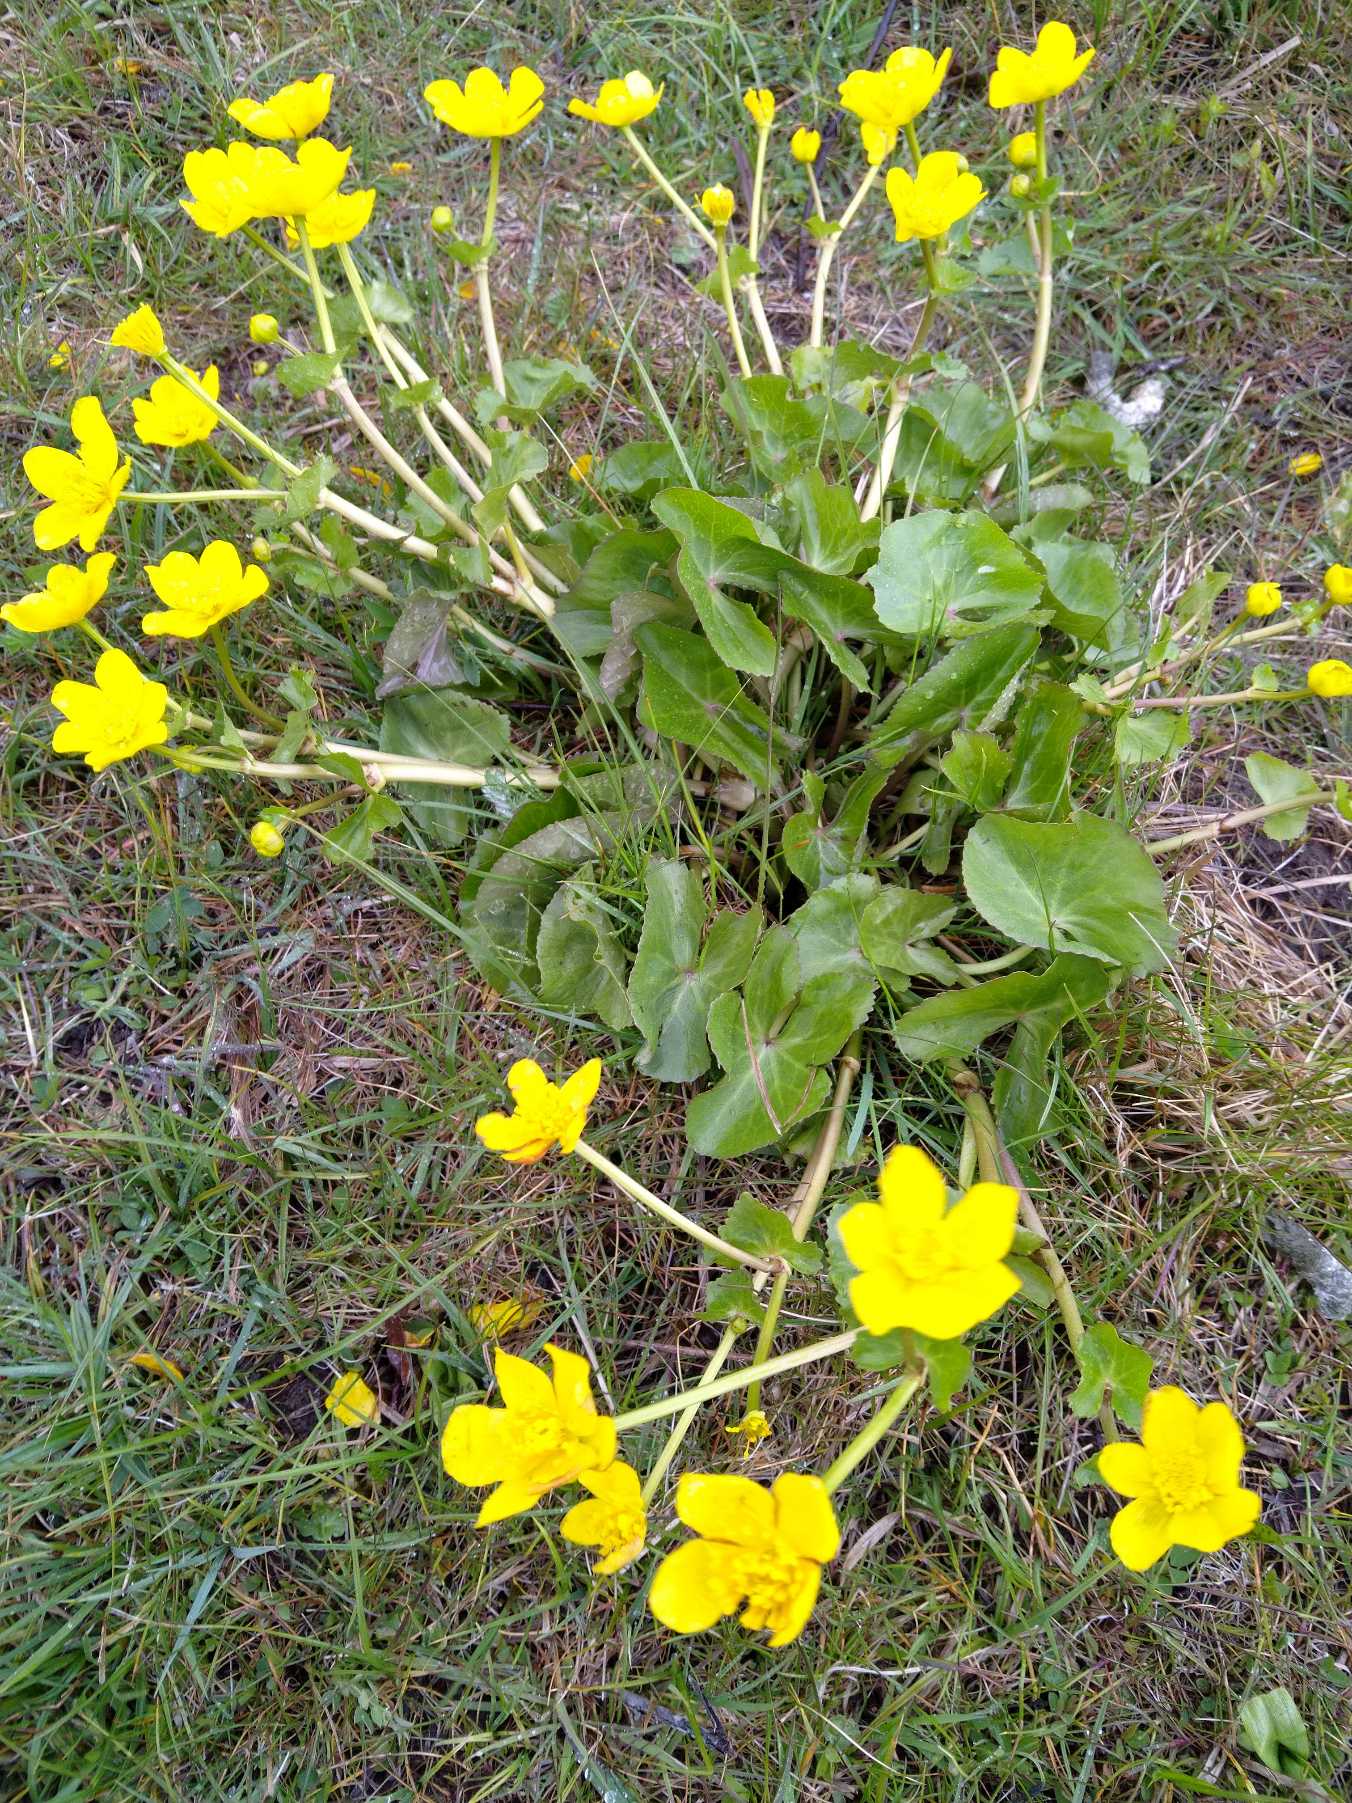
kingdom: Plantae
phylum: Tracheophyta
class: Magnoliopsida
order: Ranunculales
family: Ranunculaceae
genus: Caltha
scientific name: Caltha palustris
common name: Eng-kabbeleje
